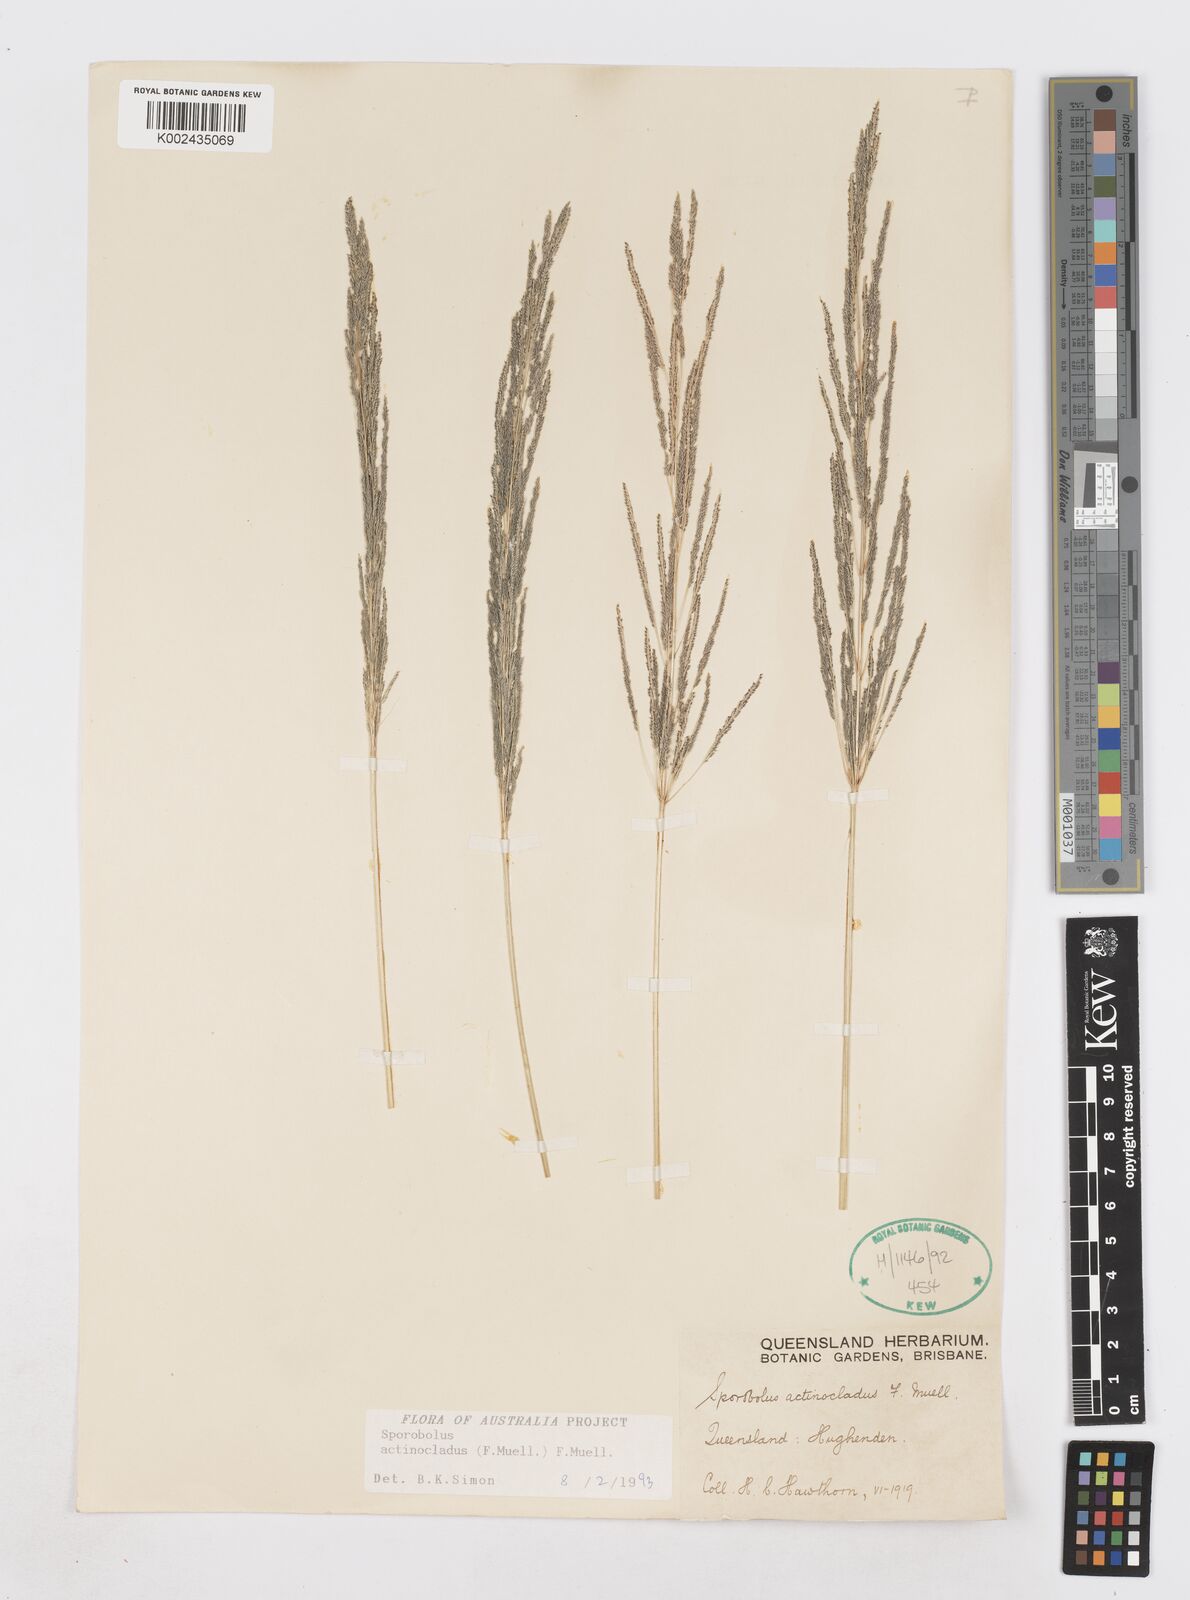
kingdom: Plantae
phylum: Tracheophyta
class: Liliopsida
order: Poales
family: Poaceae
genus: Sporobolus
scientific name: Sporobolus actinocladus
